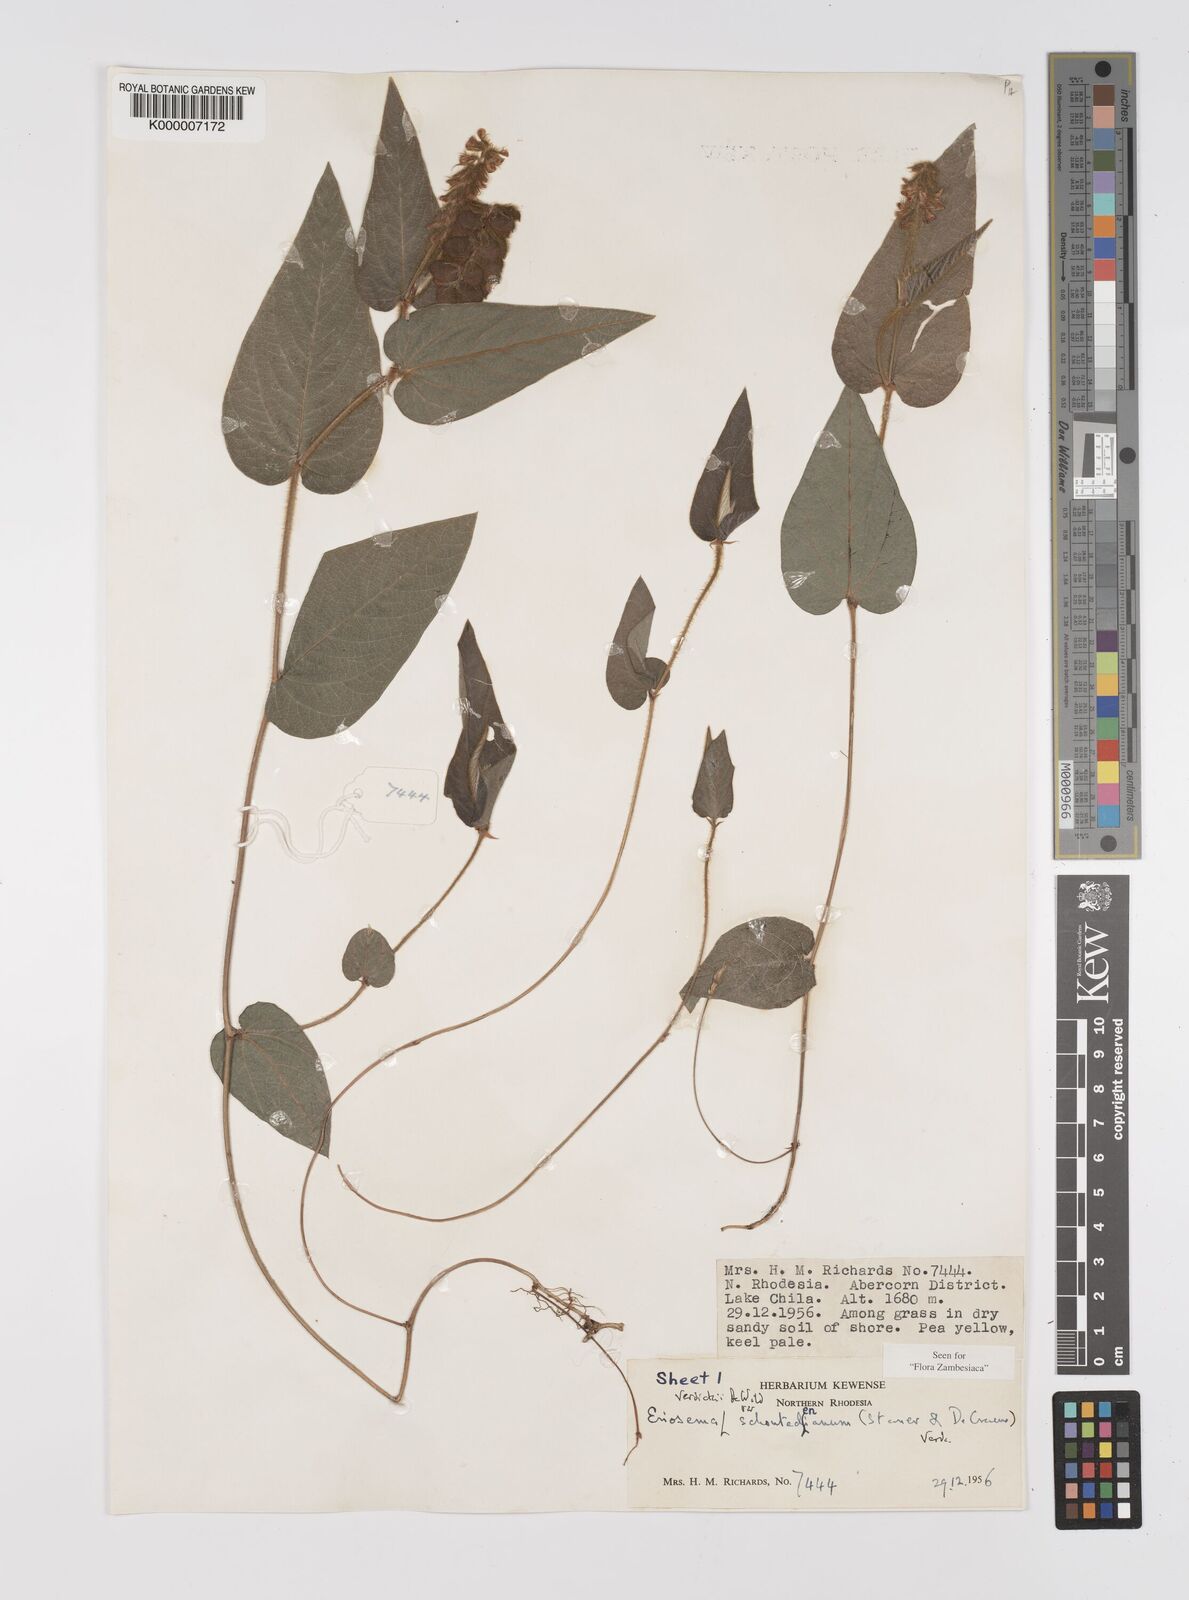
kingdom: Plantae
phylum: Tracheophyta
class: Magnoliopsida
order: Fabales
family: Fabaceae
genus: Eriosema
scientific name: Eriosema verdickii
